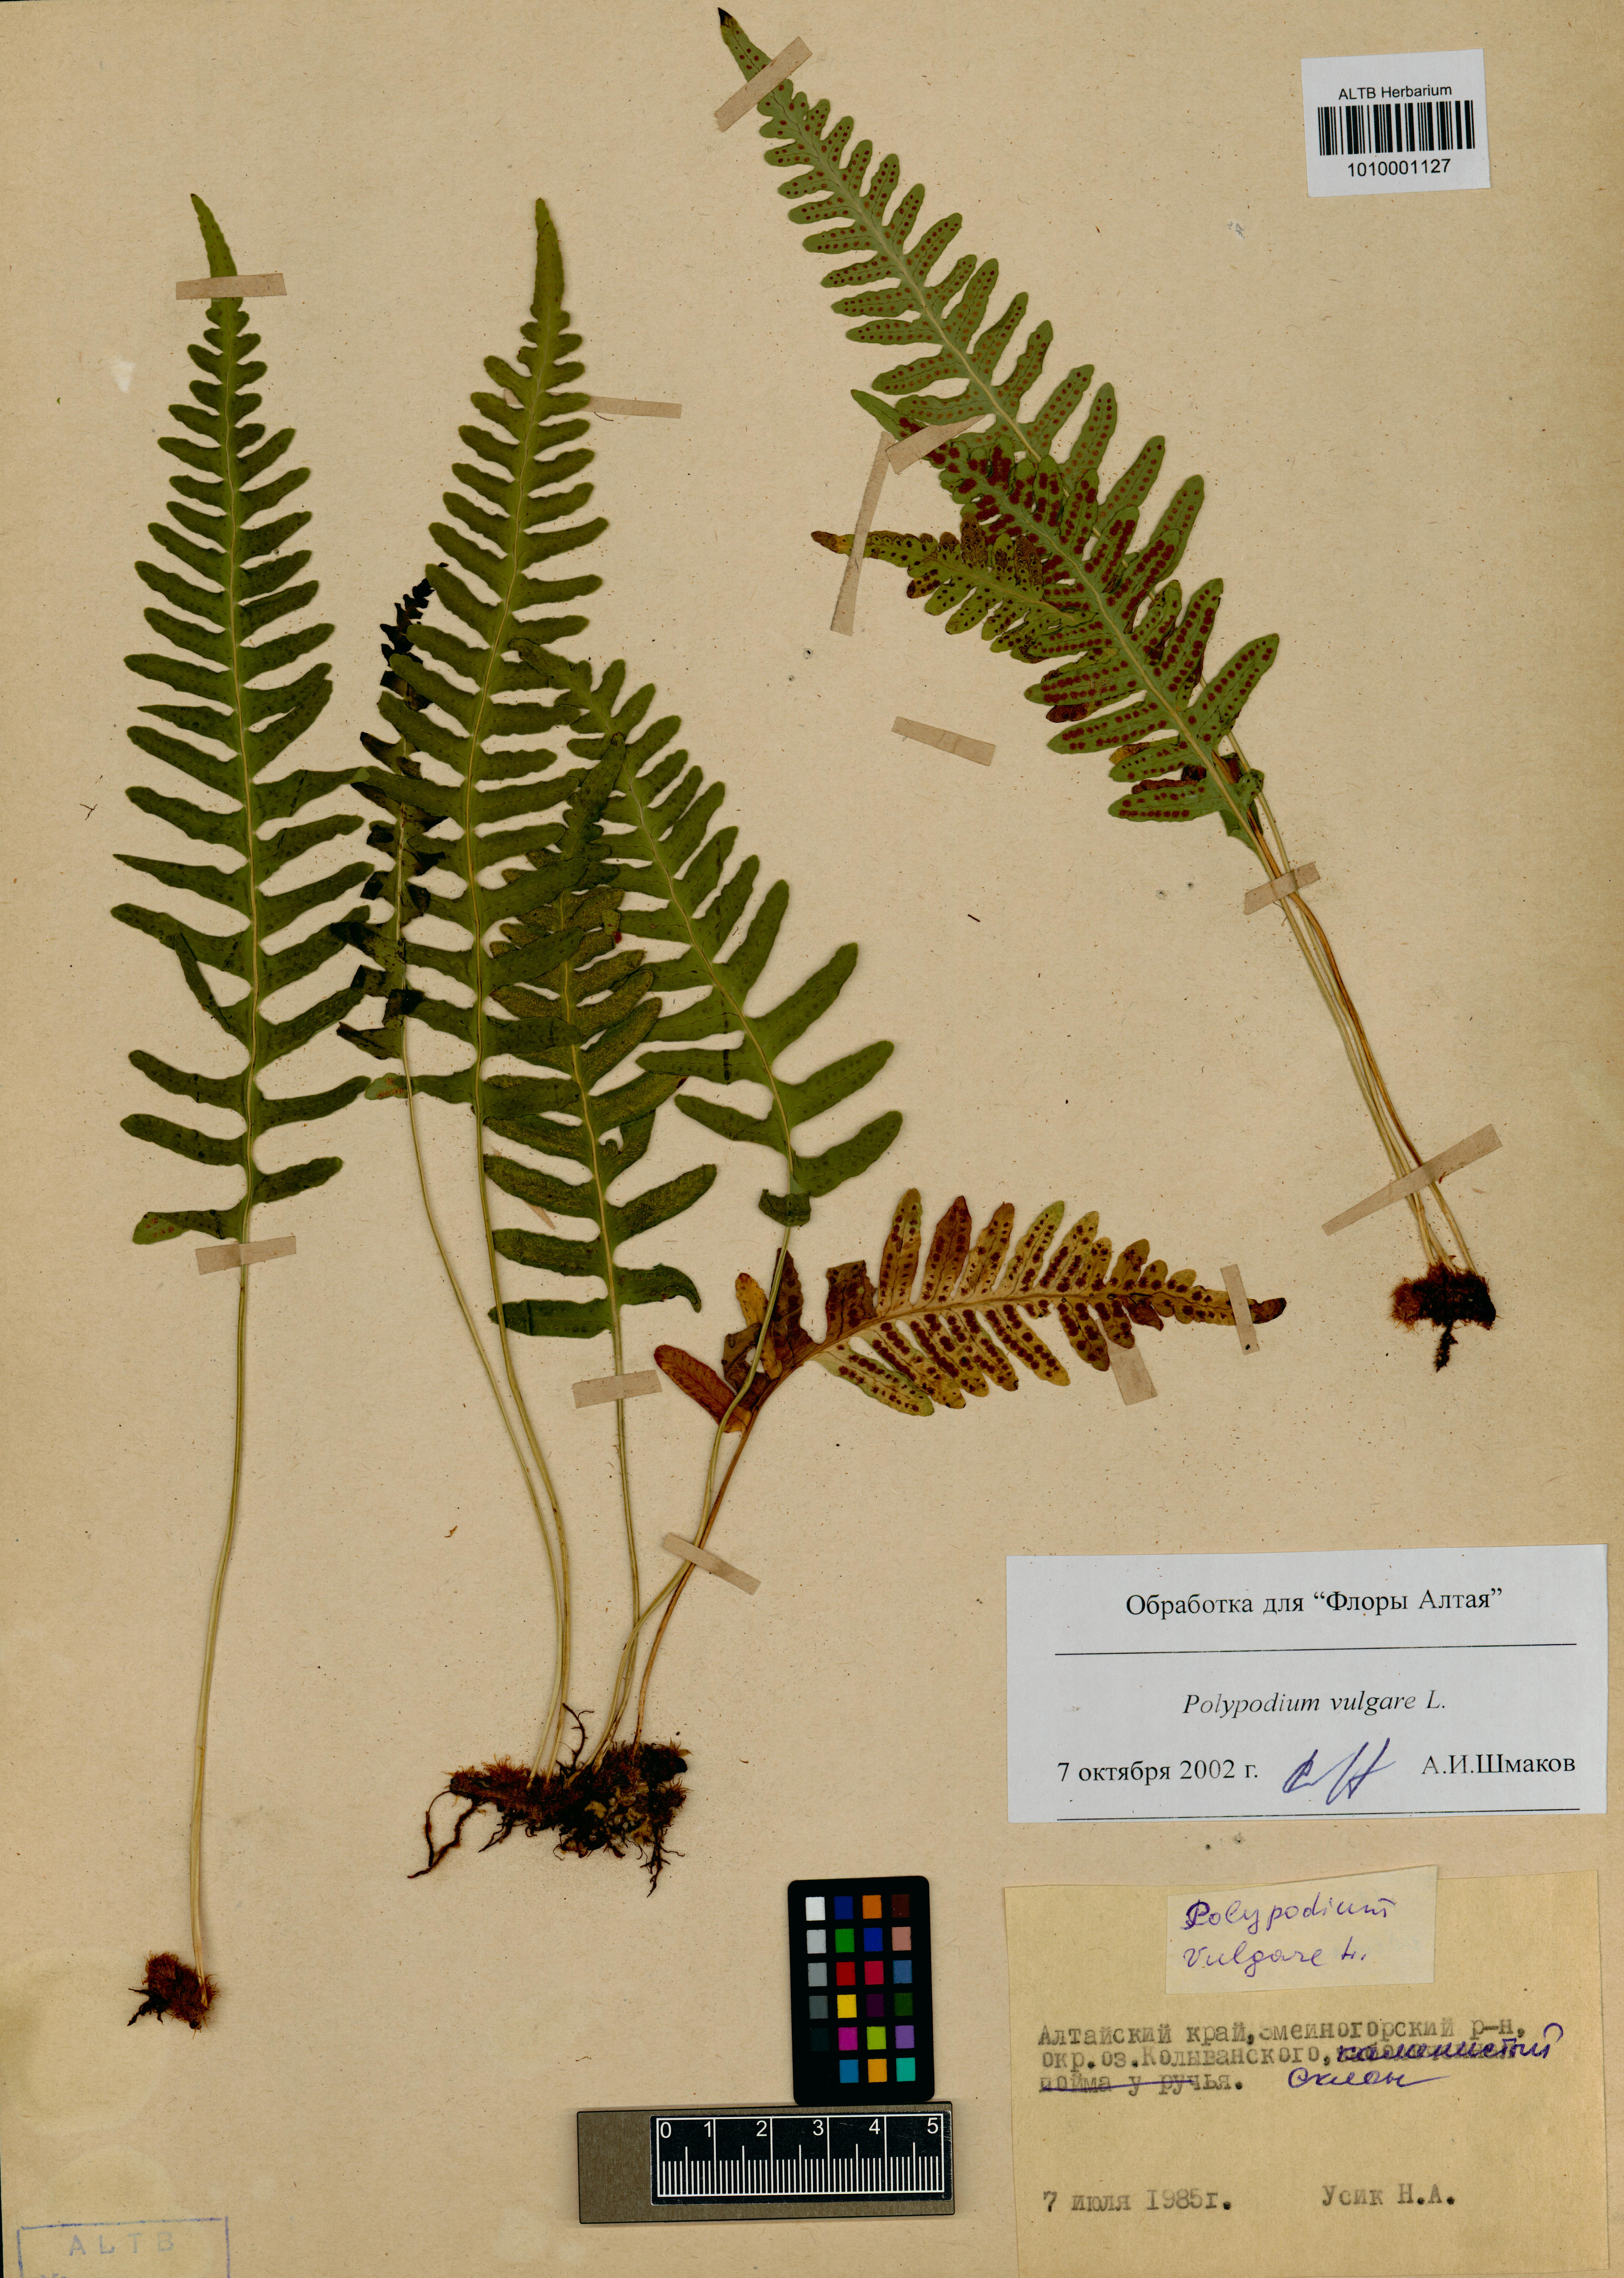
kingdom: Plantae
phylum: Tracheophyta
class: Polypodiopsida
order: Polypodiales
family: Polypodiaceae
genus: Polypodium
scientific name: Polypodium vulgare
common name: Common polypody
